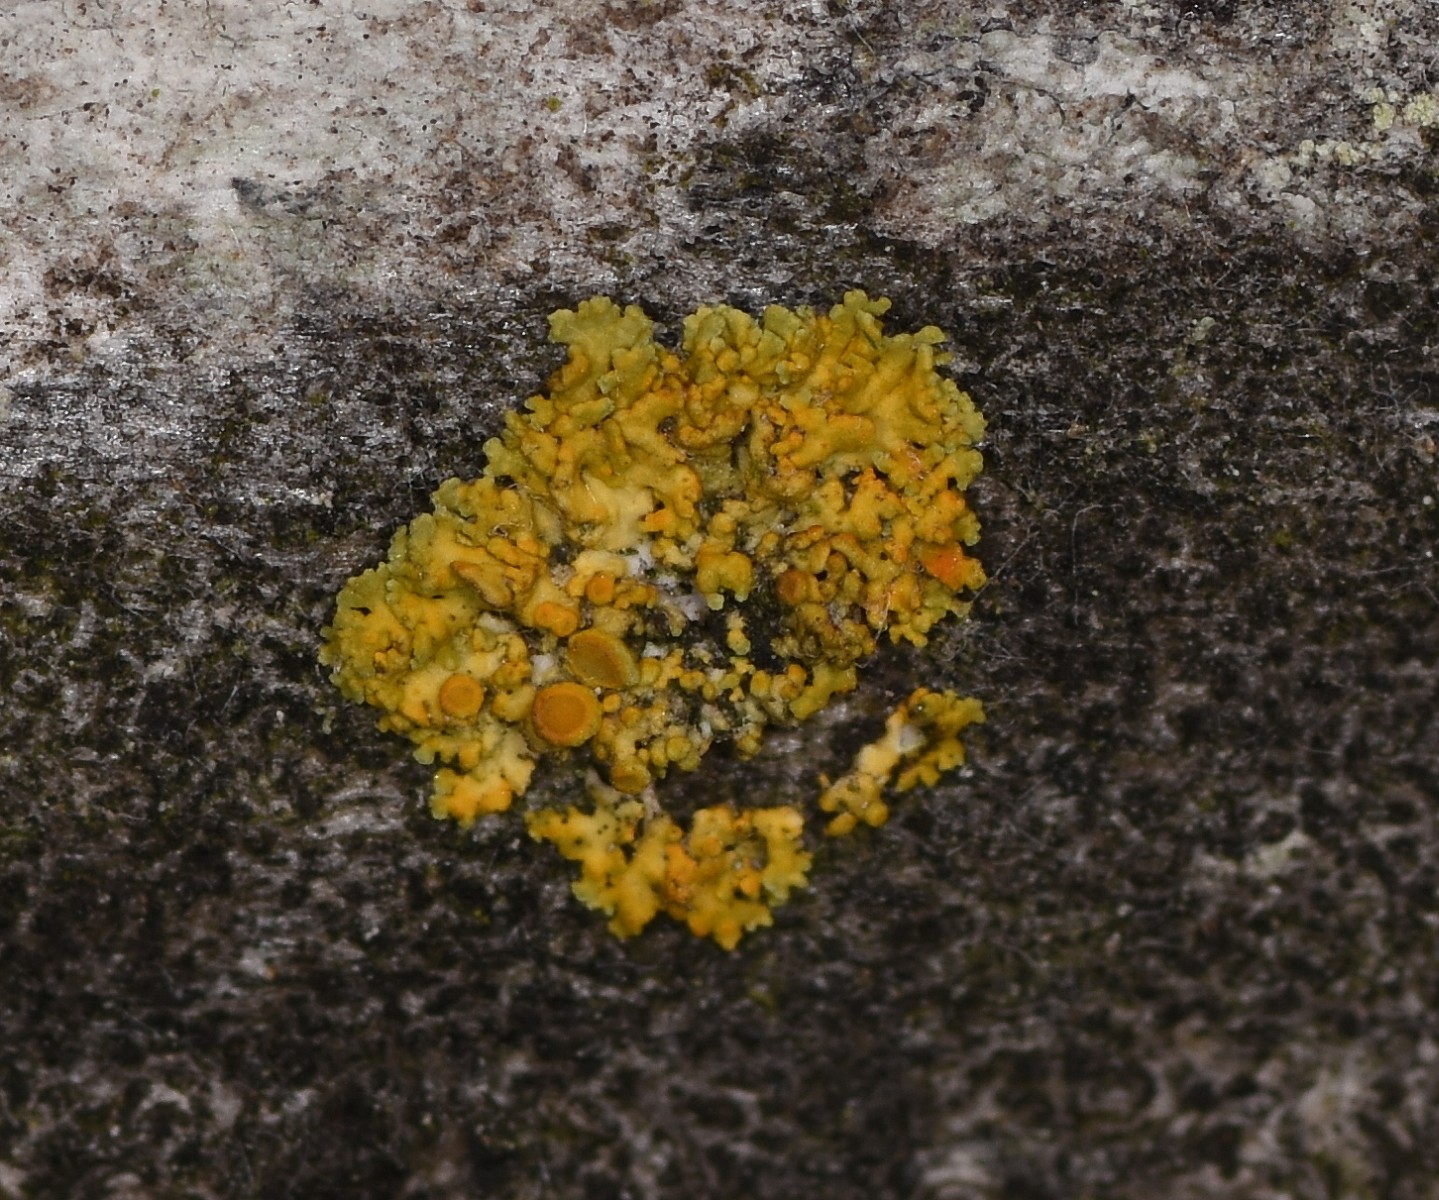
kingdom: Fungi
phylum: Ascomycota
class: Lecanoromycetes
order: Teloschistales
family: Teloschistaceae
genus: Polycauliona
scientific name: Polycauliona polycarpa
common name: mangefrugtet orangelav
